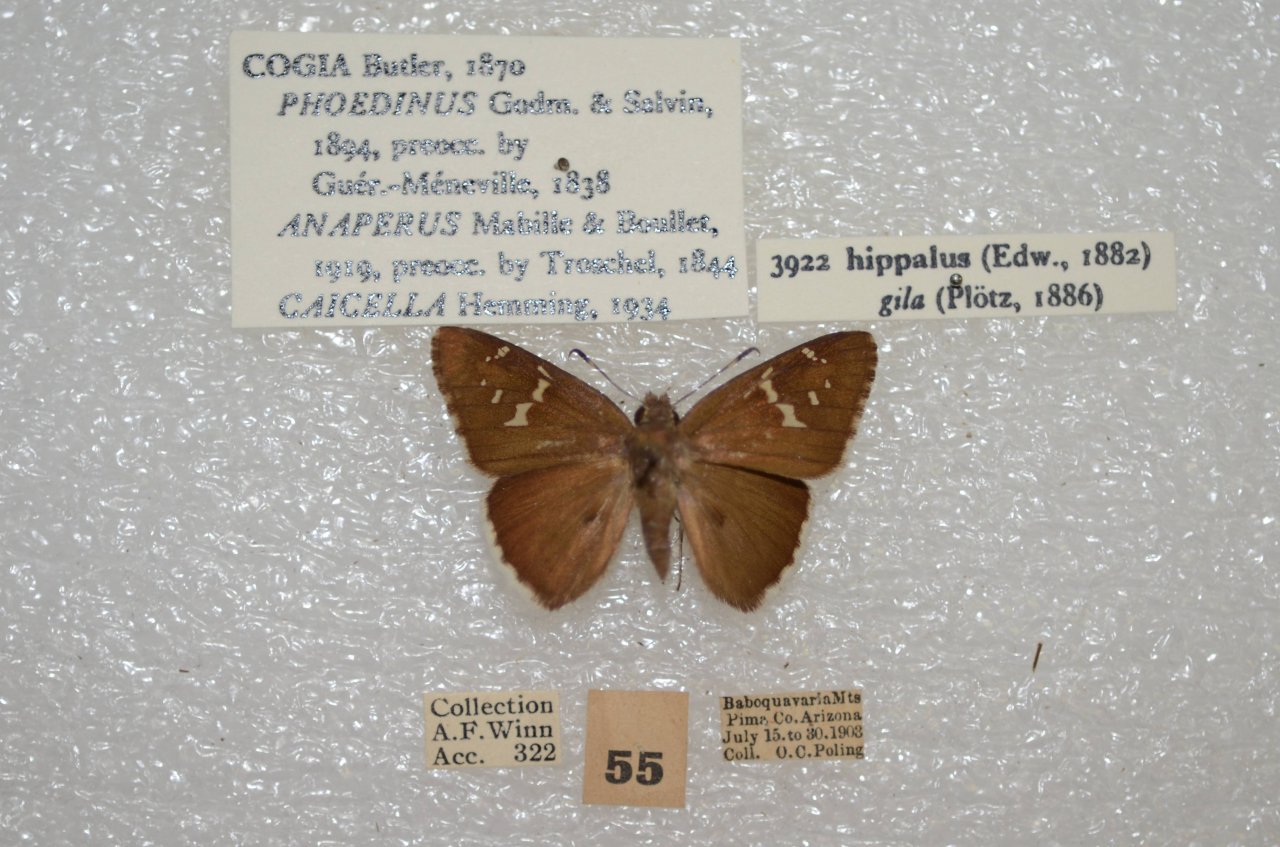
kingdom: Animalia
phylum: Arthropoda
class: Insecta
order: Lepidoptera
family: Hesperiidae
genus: Cogia
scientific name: Cogia hippalus
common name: Acacia Skipper
